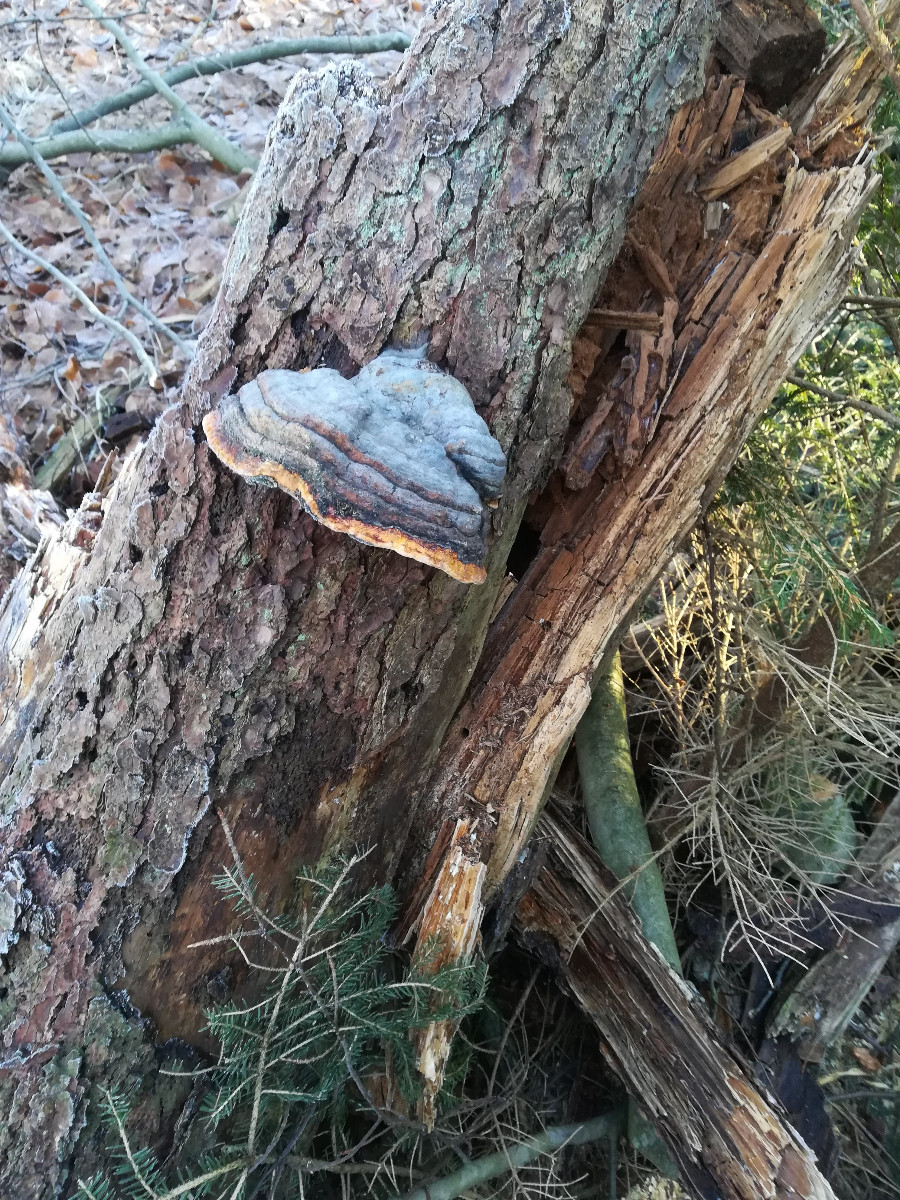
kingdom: Fungi
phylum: Basidiomycota
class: Agaricomycetes
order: Polyporales
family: Fomitopsidaceae
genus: Fomitopsis
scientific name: Fomitopsis pinicola
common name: randbæltet hovporesvamp
